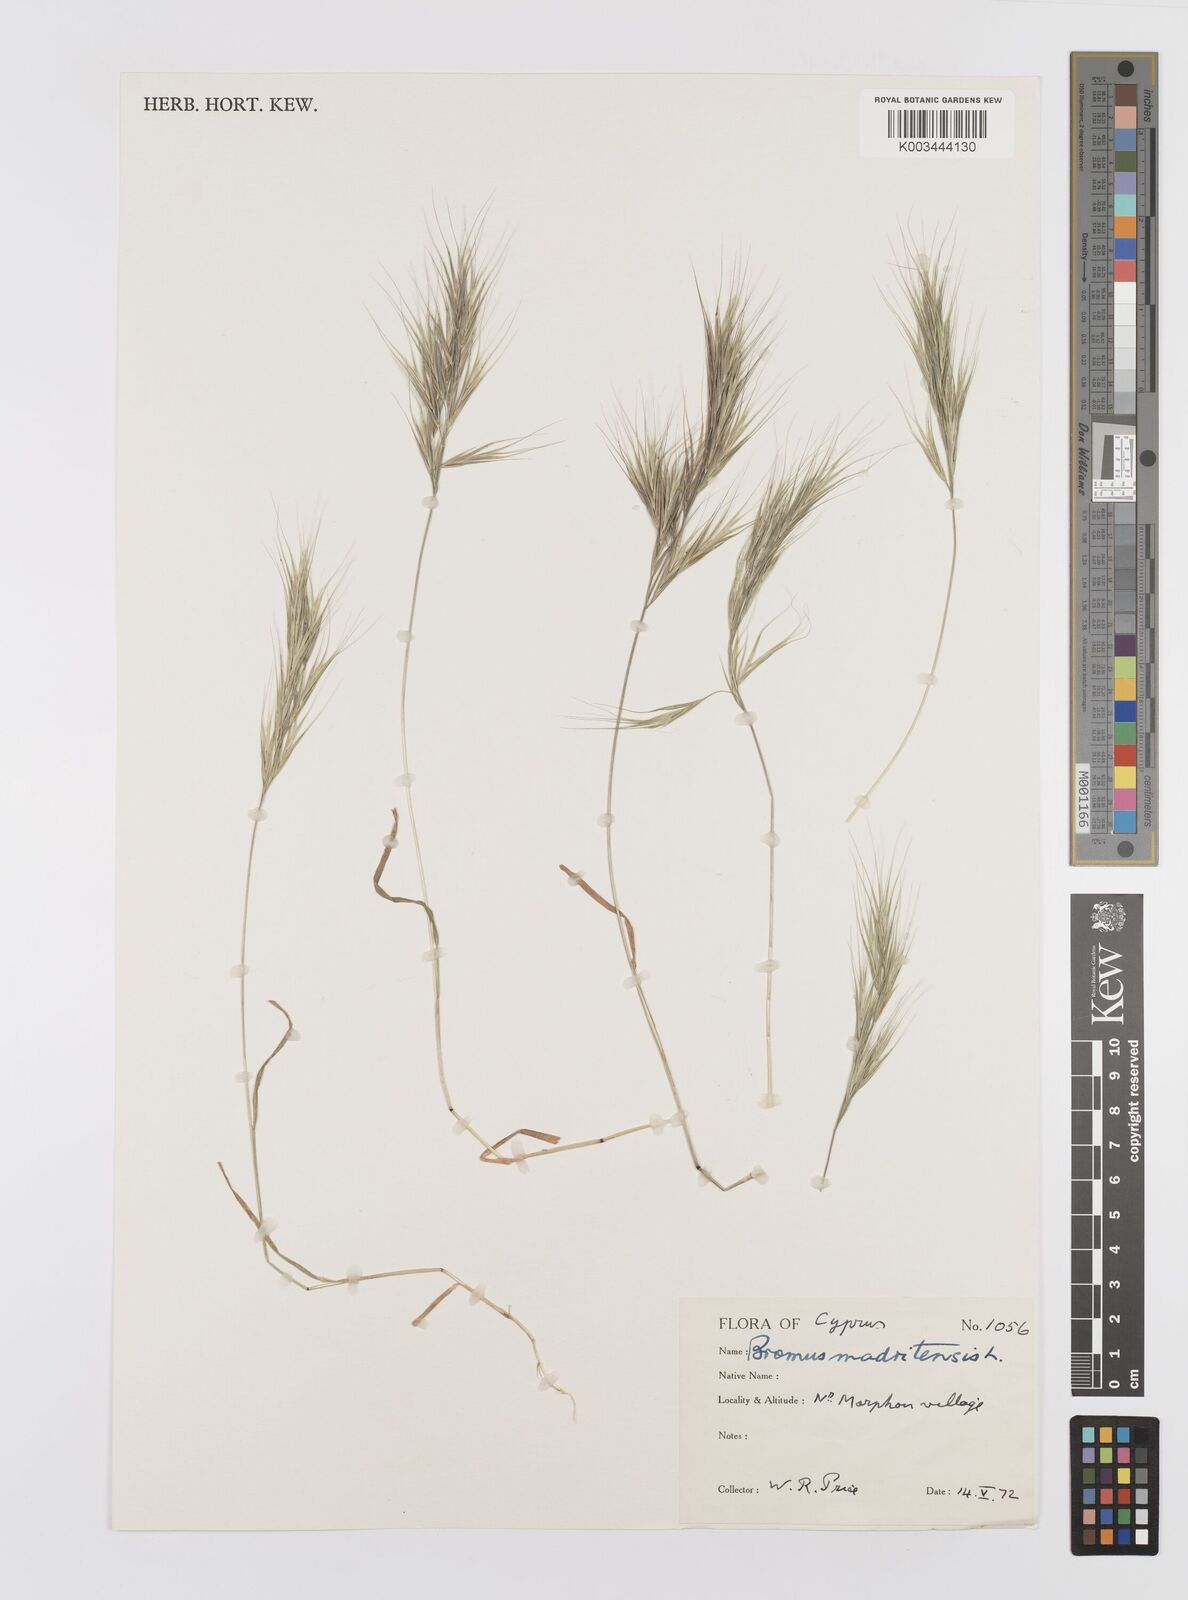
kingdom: Plantae
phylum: Tracheophyta
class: Liliopsida
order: Poales
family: Poaceae
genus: Bromus
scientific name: Bromus madritensis
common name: Compact brome
